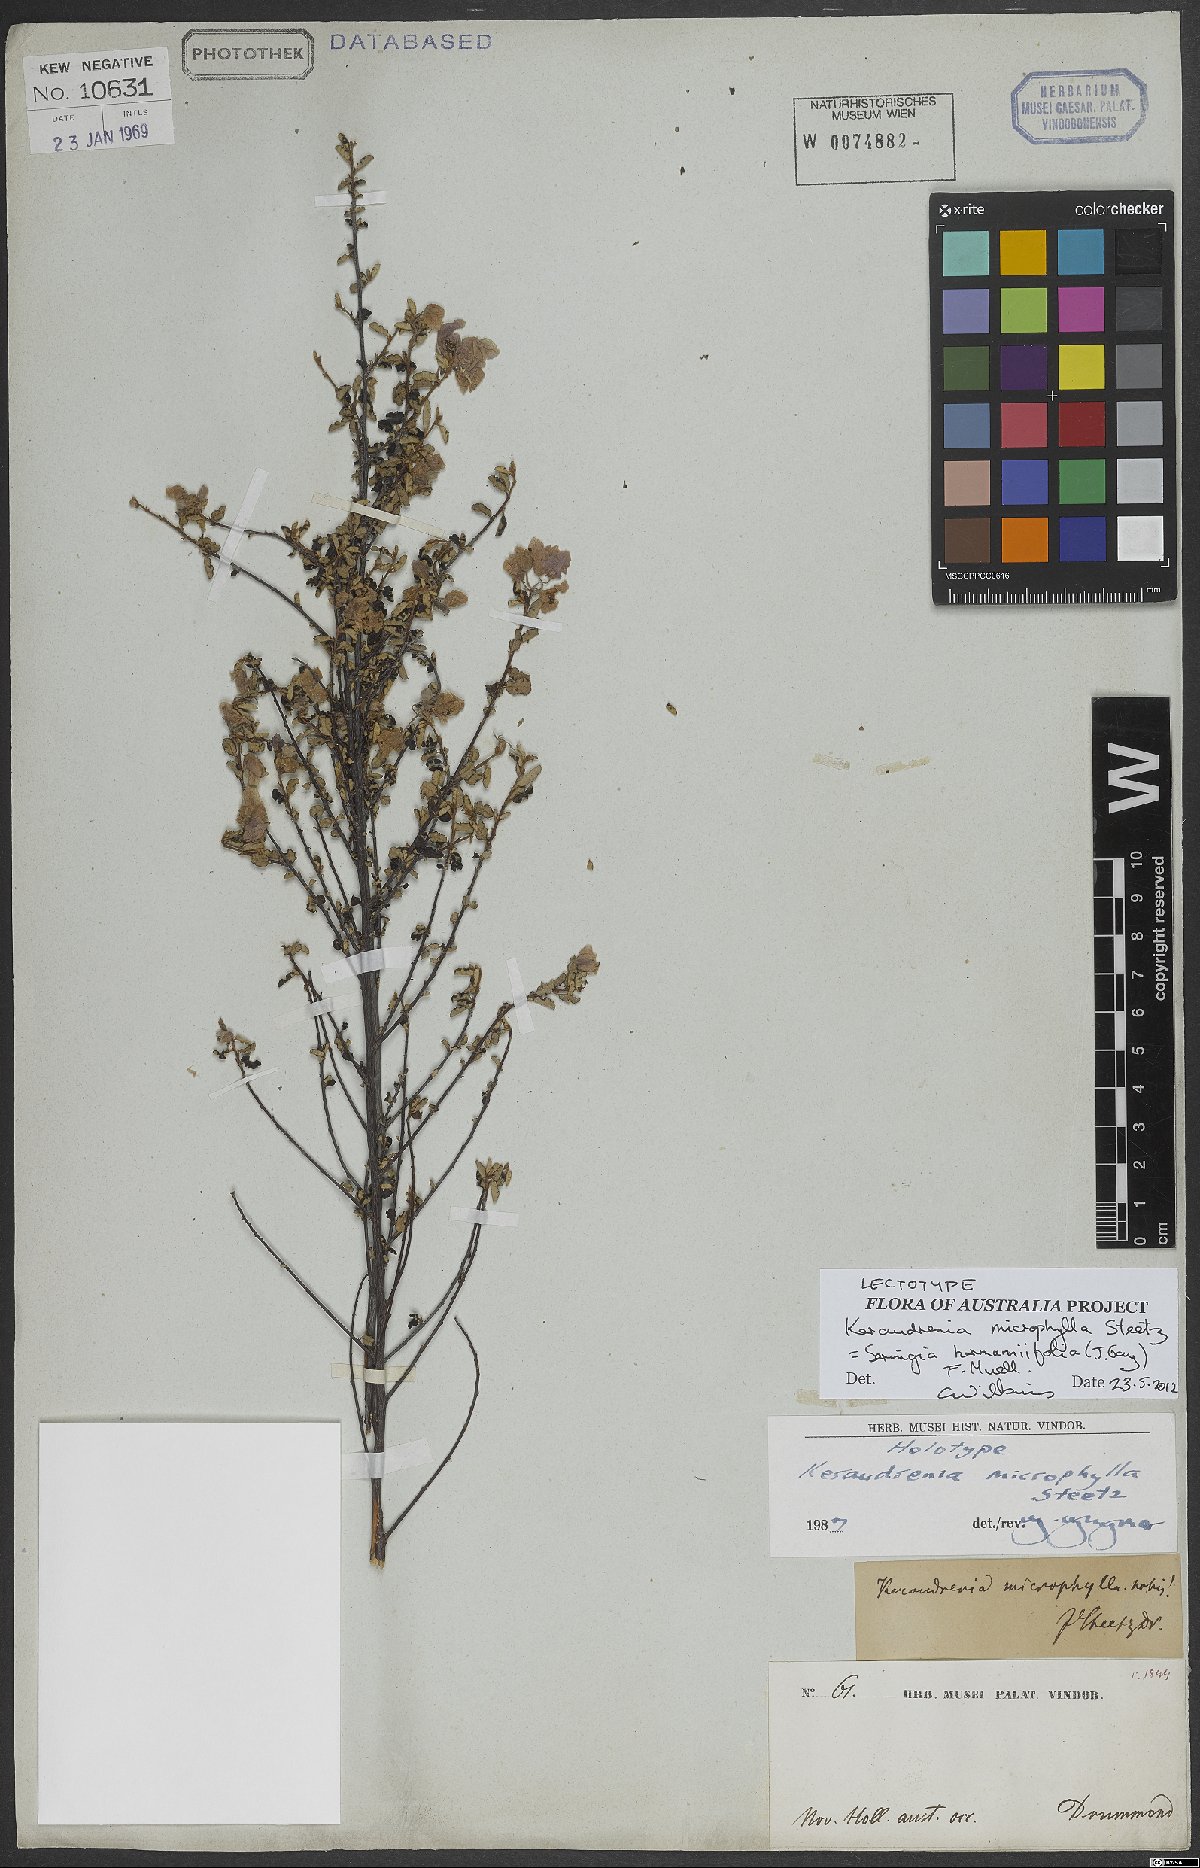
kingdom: Plantae
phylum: Tracheophyta
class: Magnoliopsida
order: Malvales
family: Malvaceae
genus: Seringia
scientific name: Seringia hermannifolia
